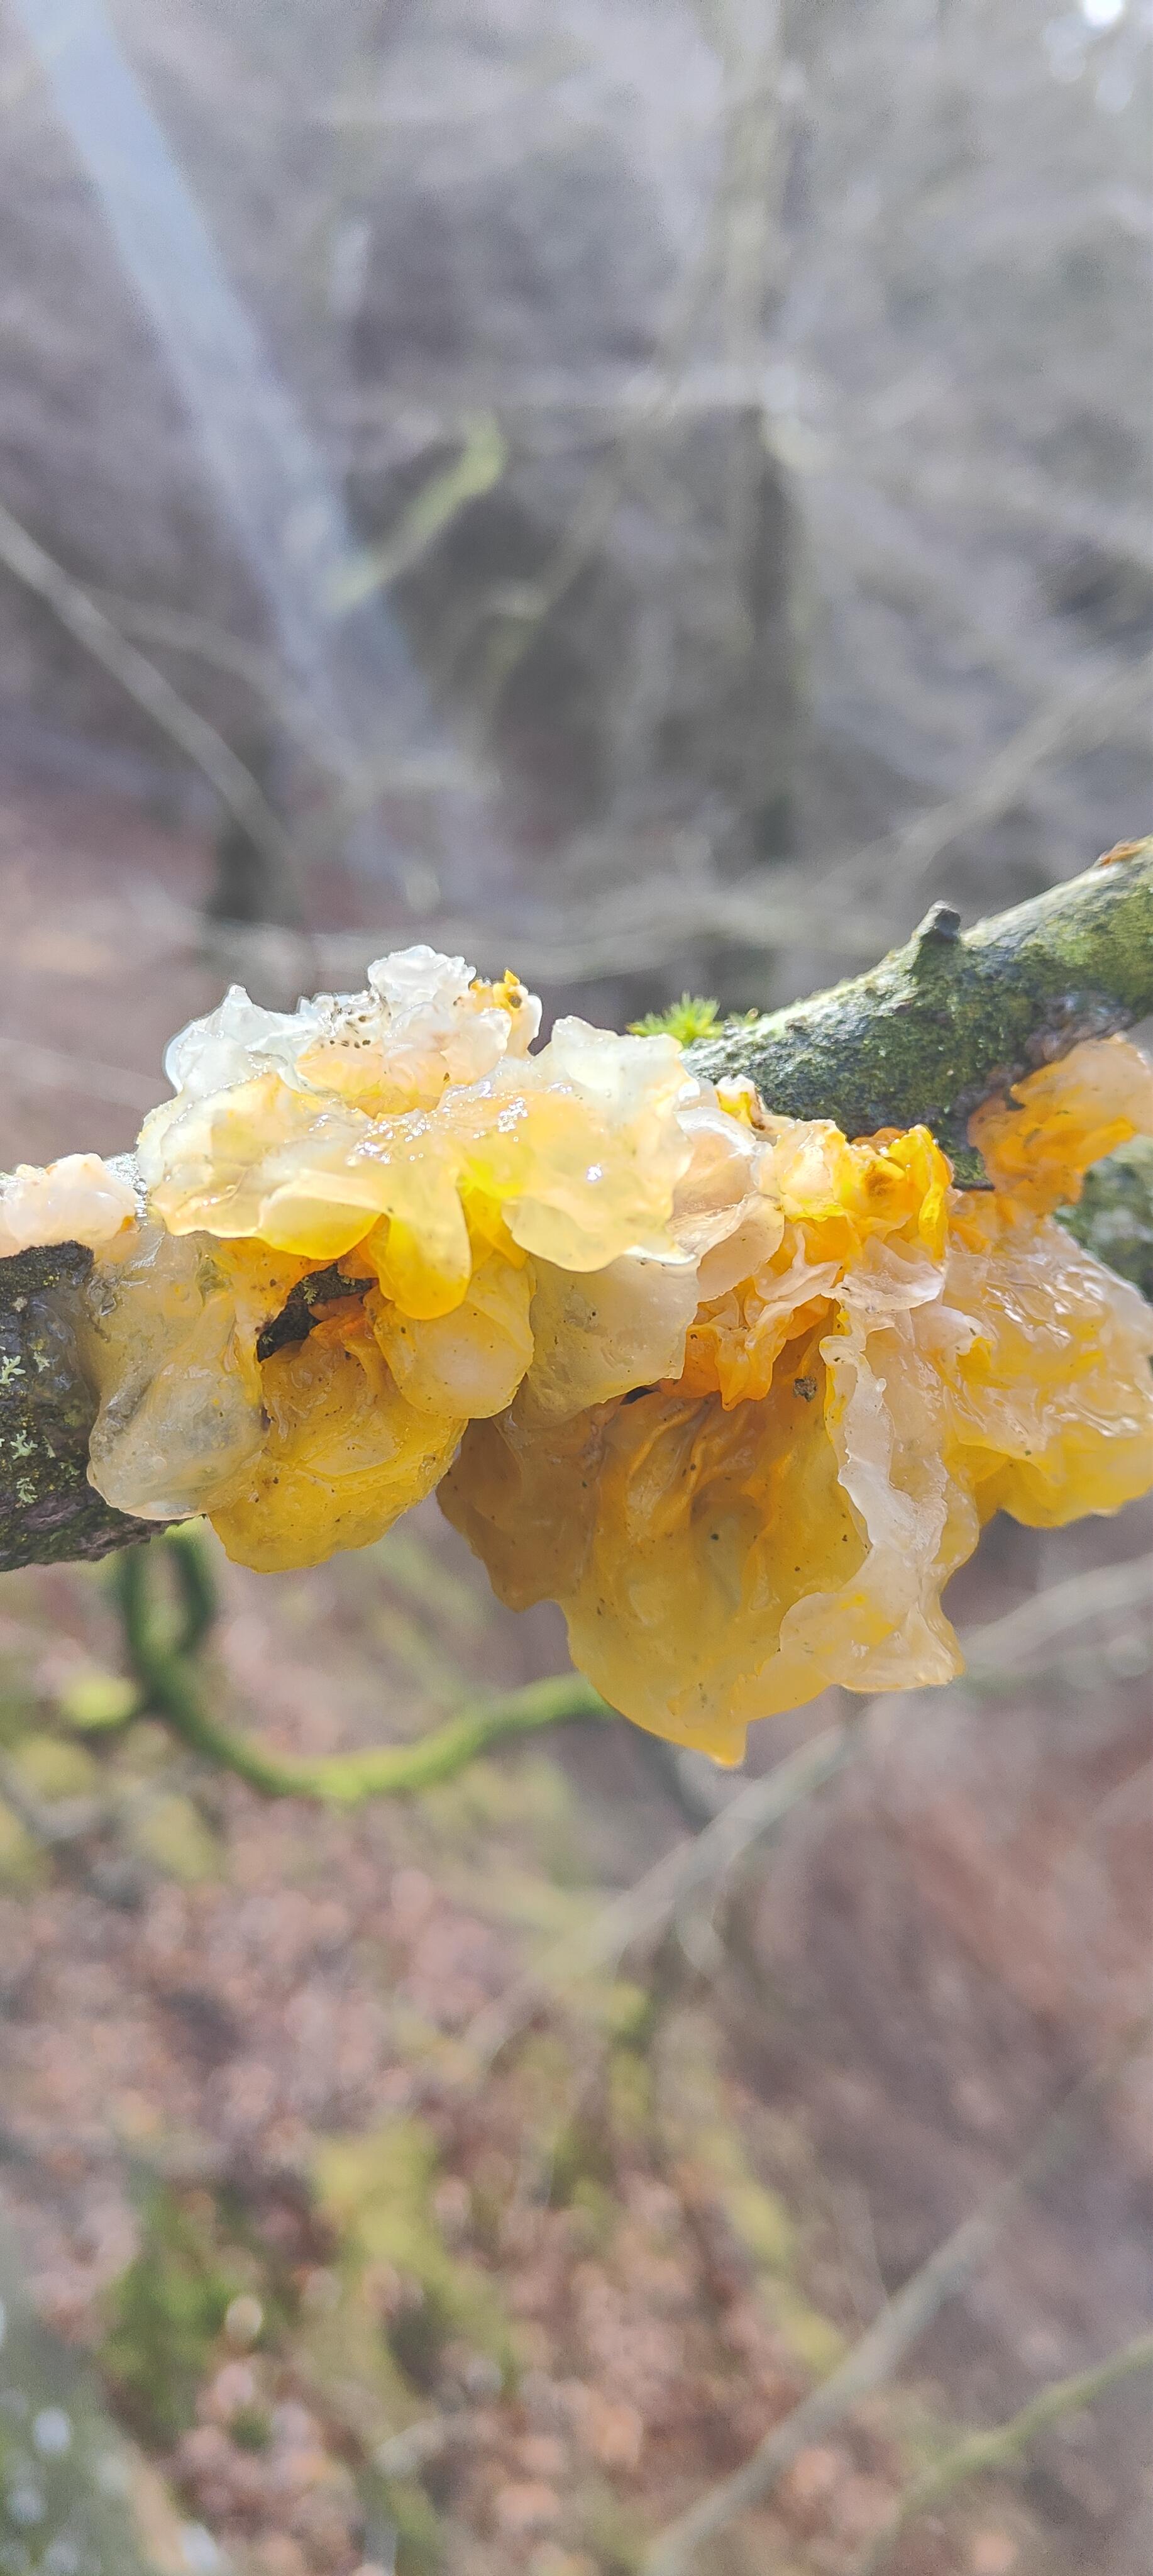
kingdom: Fungi
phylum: Basidiomycota
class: Tremellomycetes
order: Tremellales
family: Tremellaceae
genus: Tremella
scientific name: Tremella mesenterica
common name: gul bævresvamp
